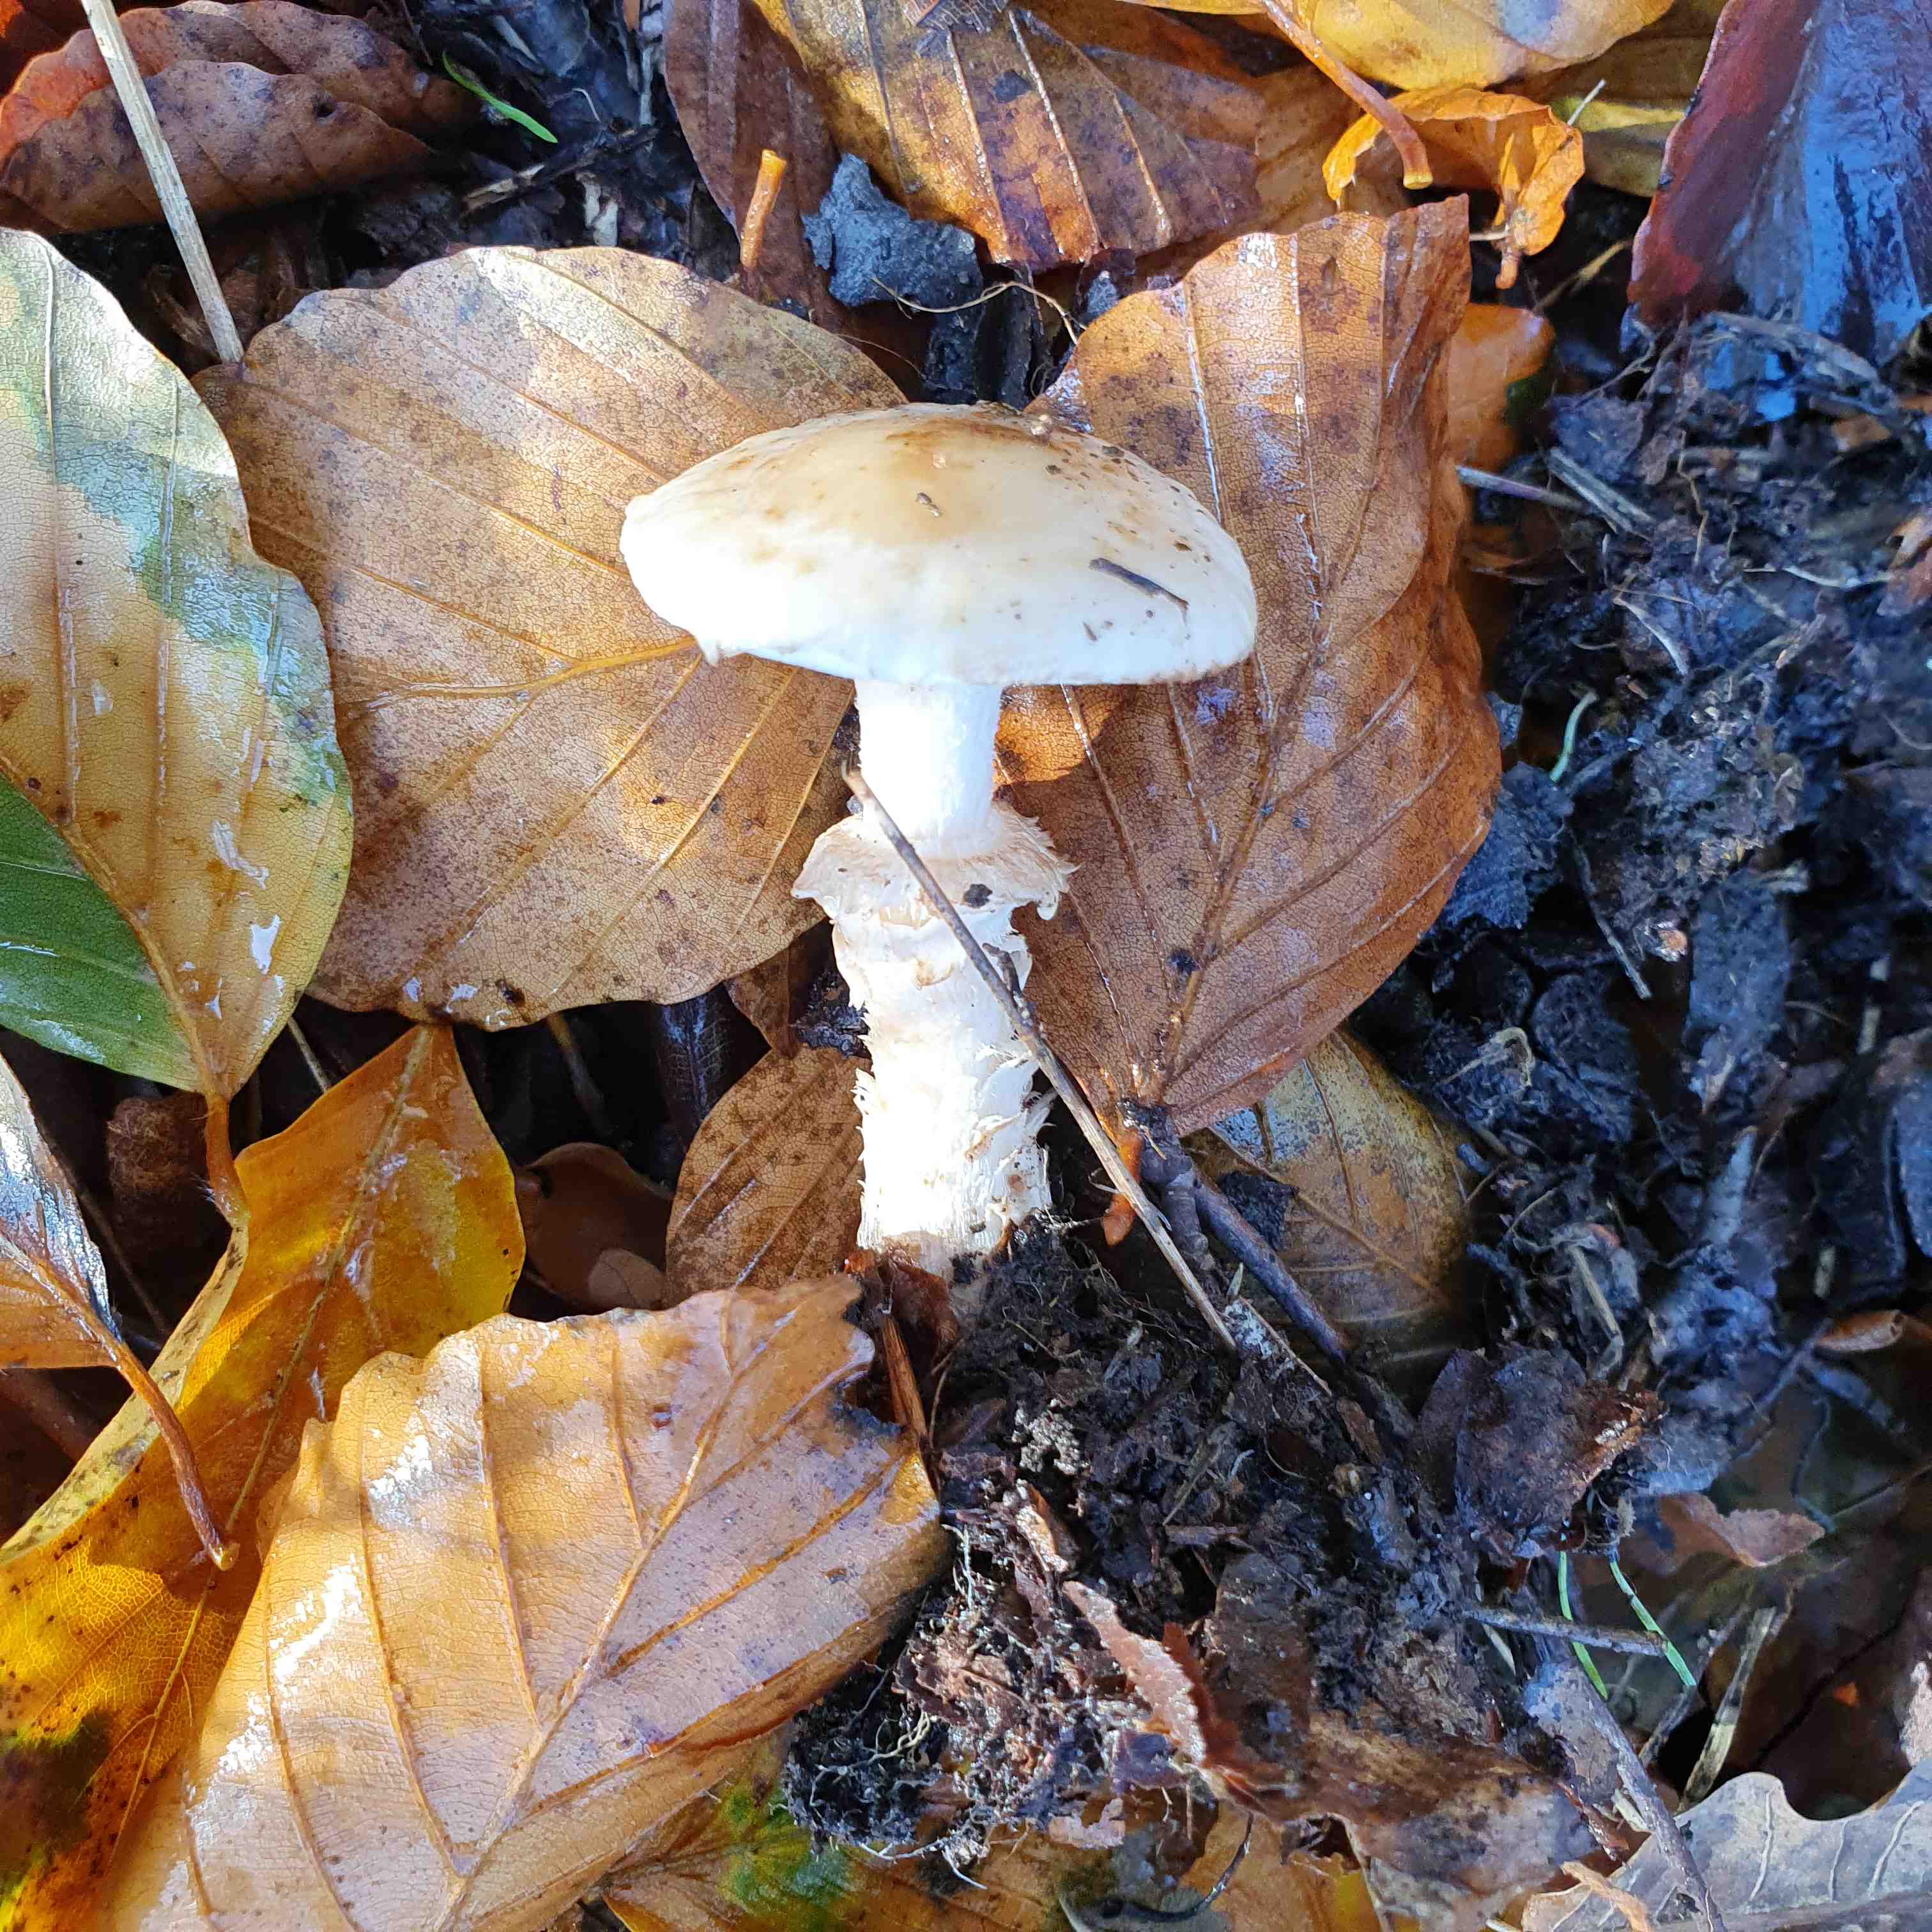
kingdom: Fungi
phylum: Basidiomycota
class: Agaricomycetes
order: Agaricales
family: Hymenogastraceae
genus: Hebeloma
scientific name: Hebeloma radicosum
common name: pælerods-tåreblad
